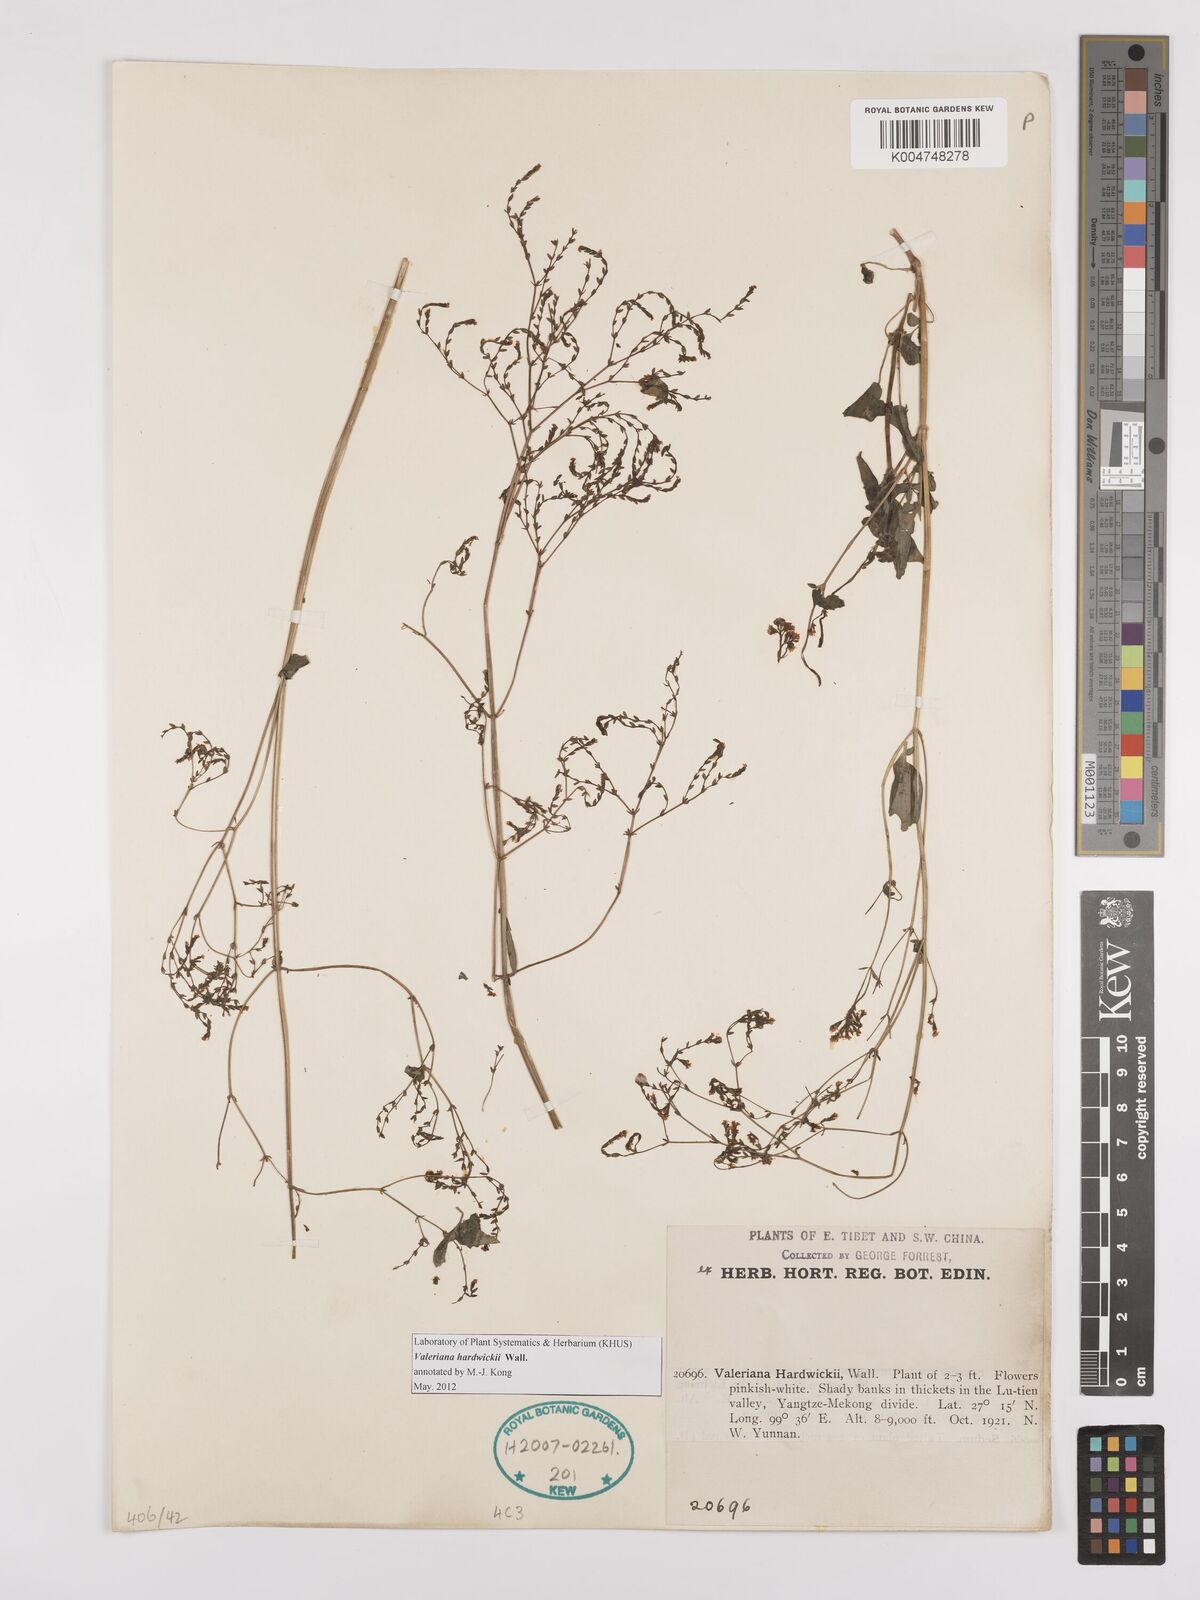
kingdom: Plantae
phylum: Tracheophyta
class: Magnoliopsida
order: Dipsacales
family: Caprifoliaceae
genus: Valeriana
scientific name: Valeriana hardwickei
